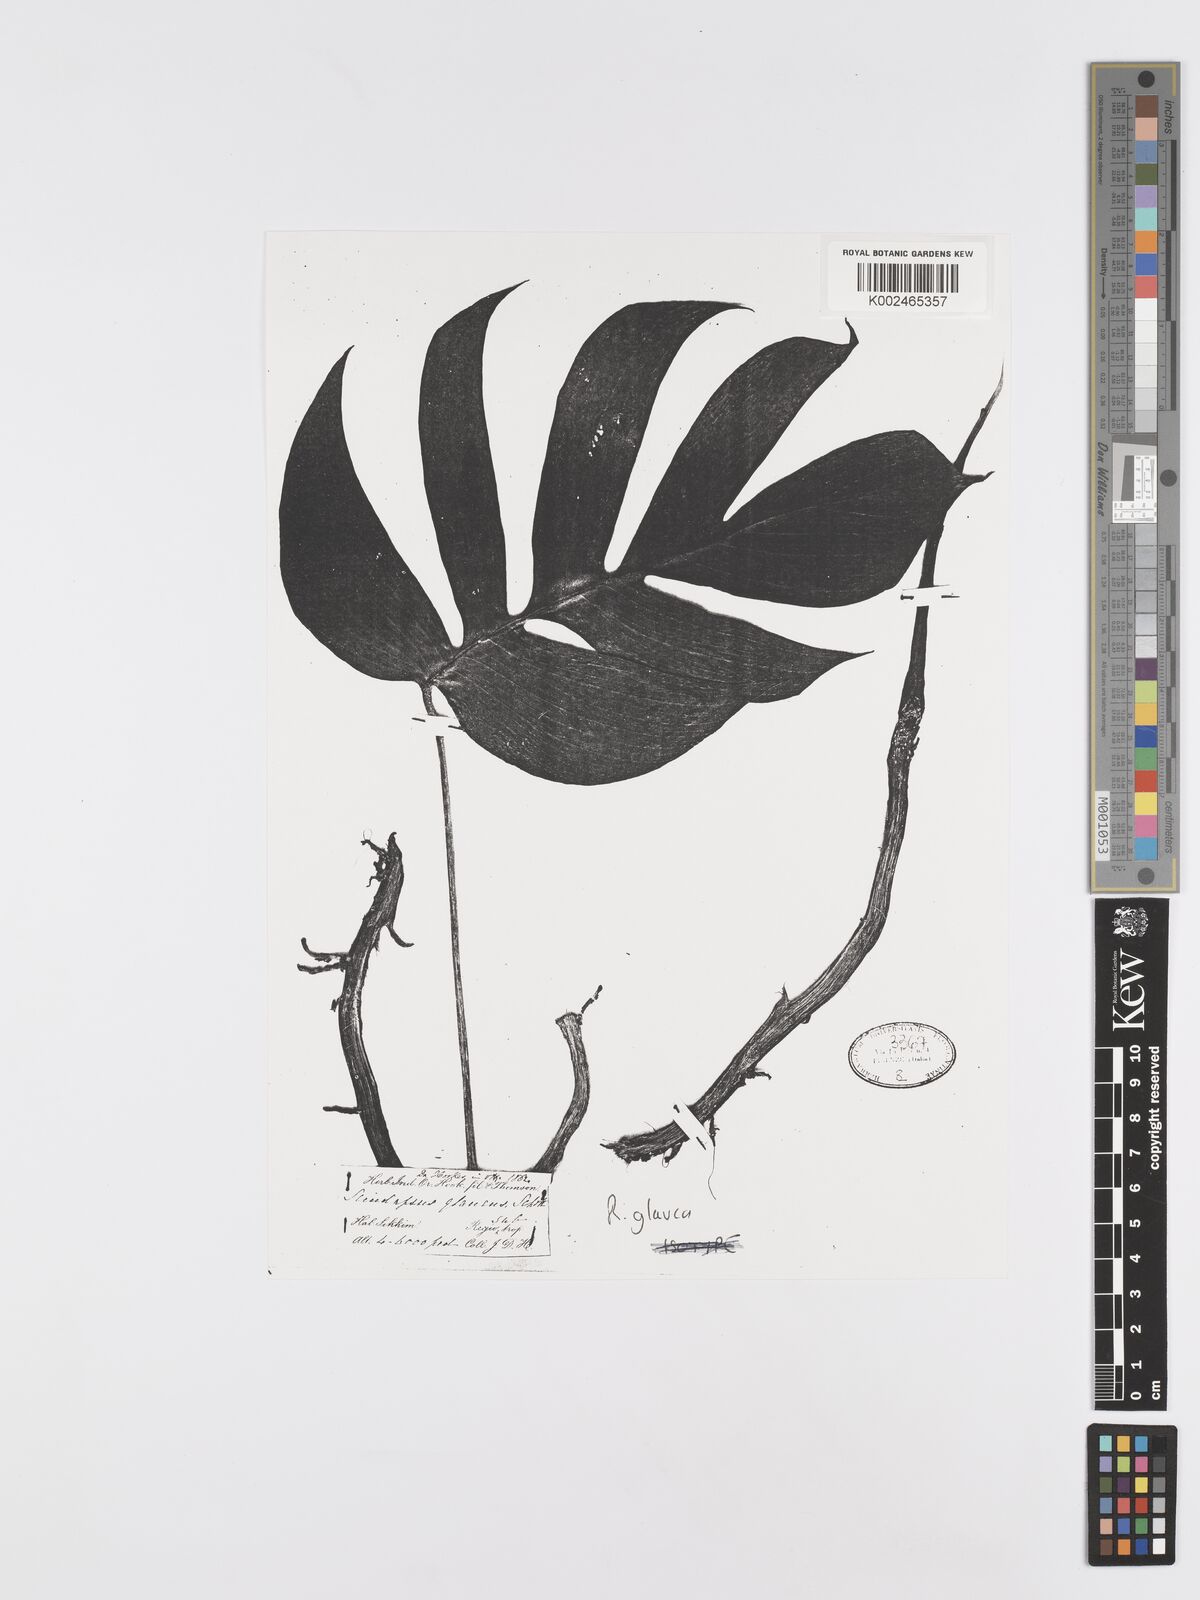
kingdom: Plantae
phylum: Tracheophyta
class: Liliopsida
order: Alismatales
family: Araceae
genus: Rhaphidophora
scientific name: Rhaphidophora glauca
